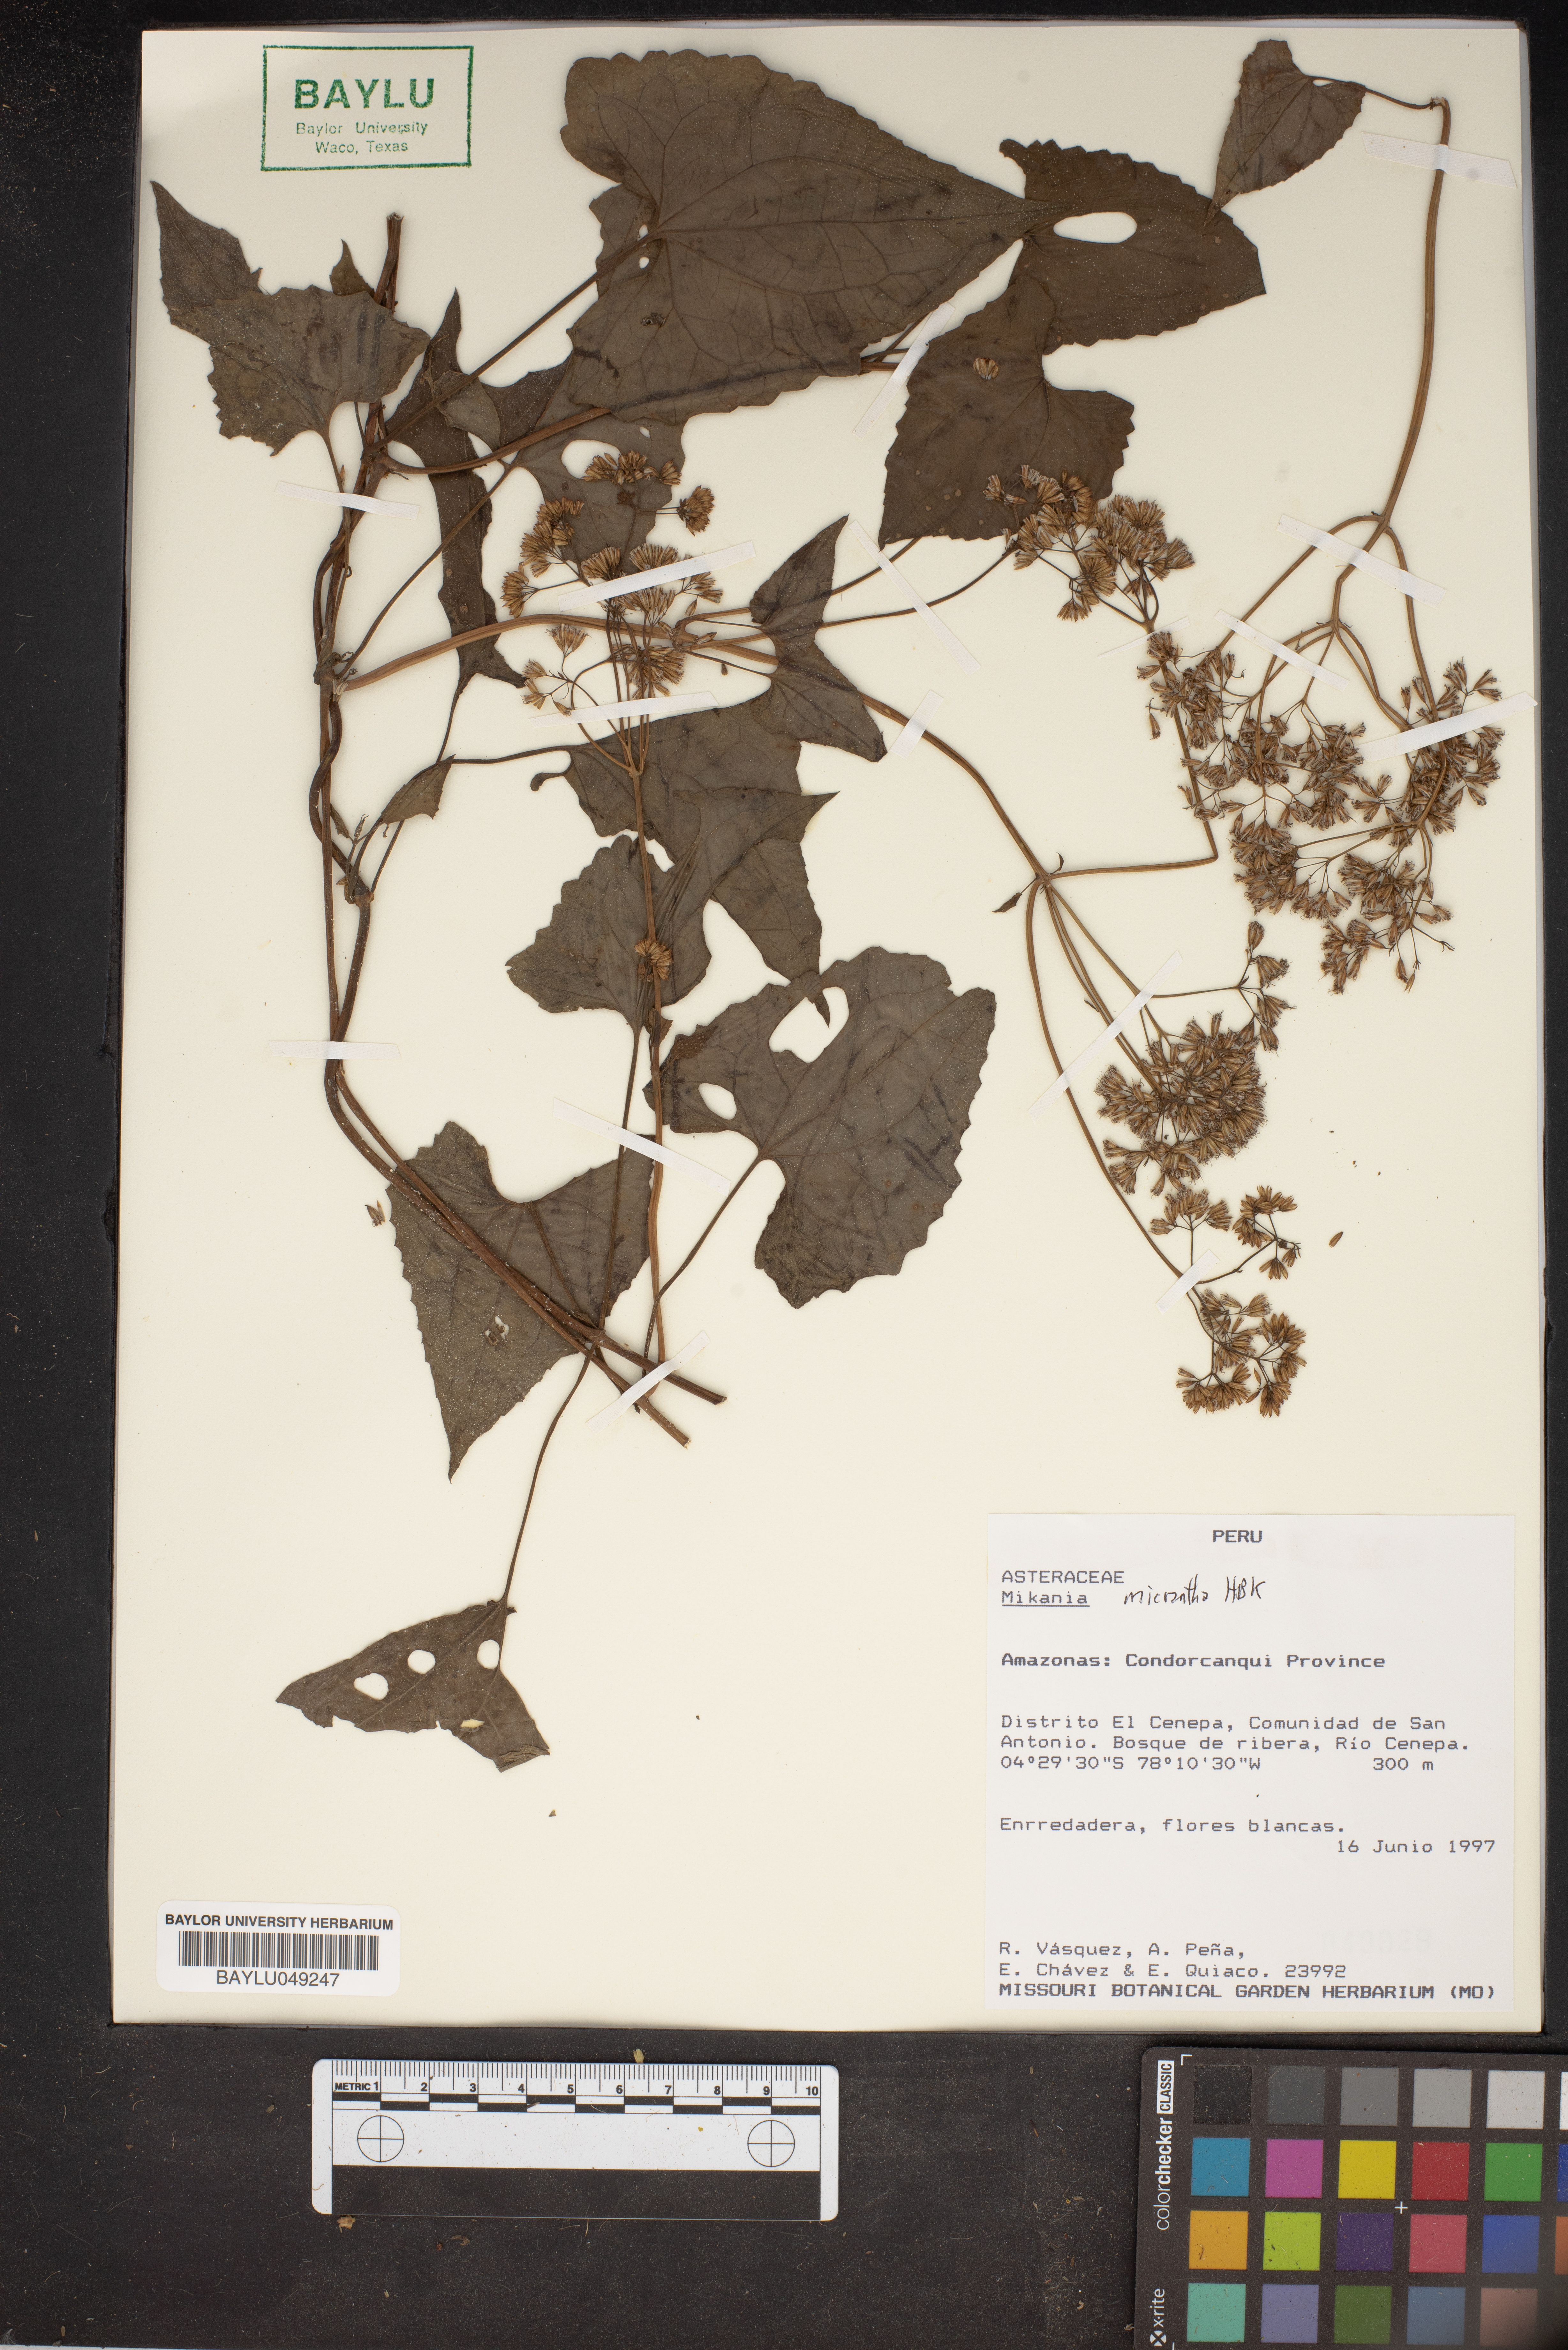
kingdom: Plantae
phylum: Tracheophyta
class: Magnoliopsida
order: Asterales
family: Asteraceae
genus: Mikania
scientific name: Mikania micrantha
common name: Mile-a-minute
